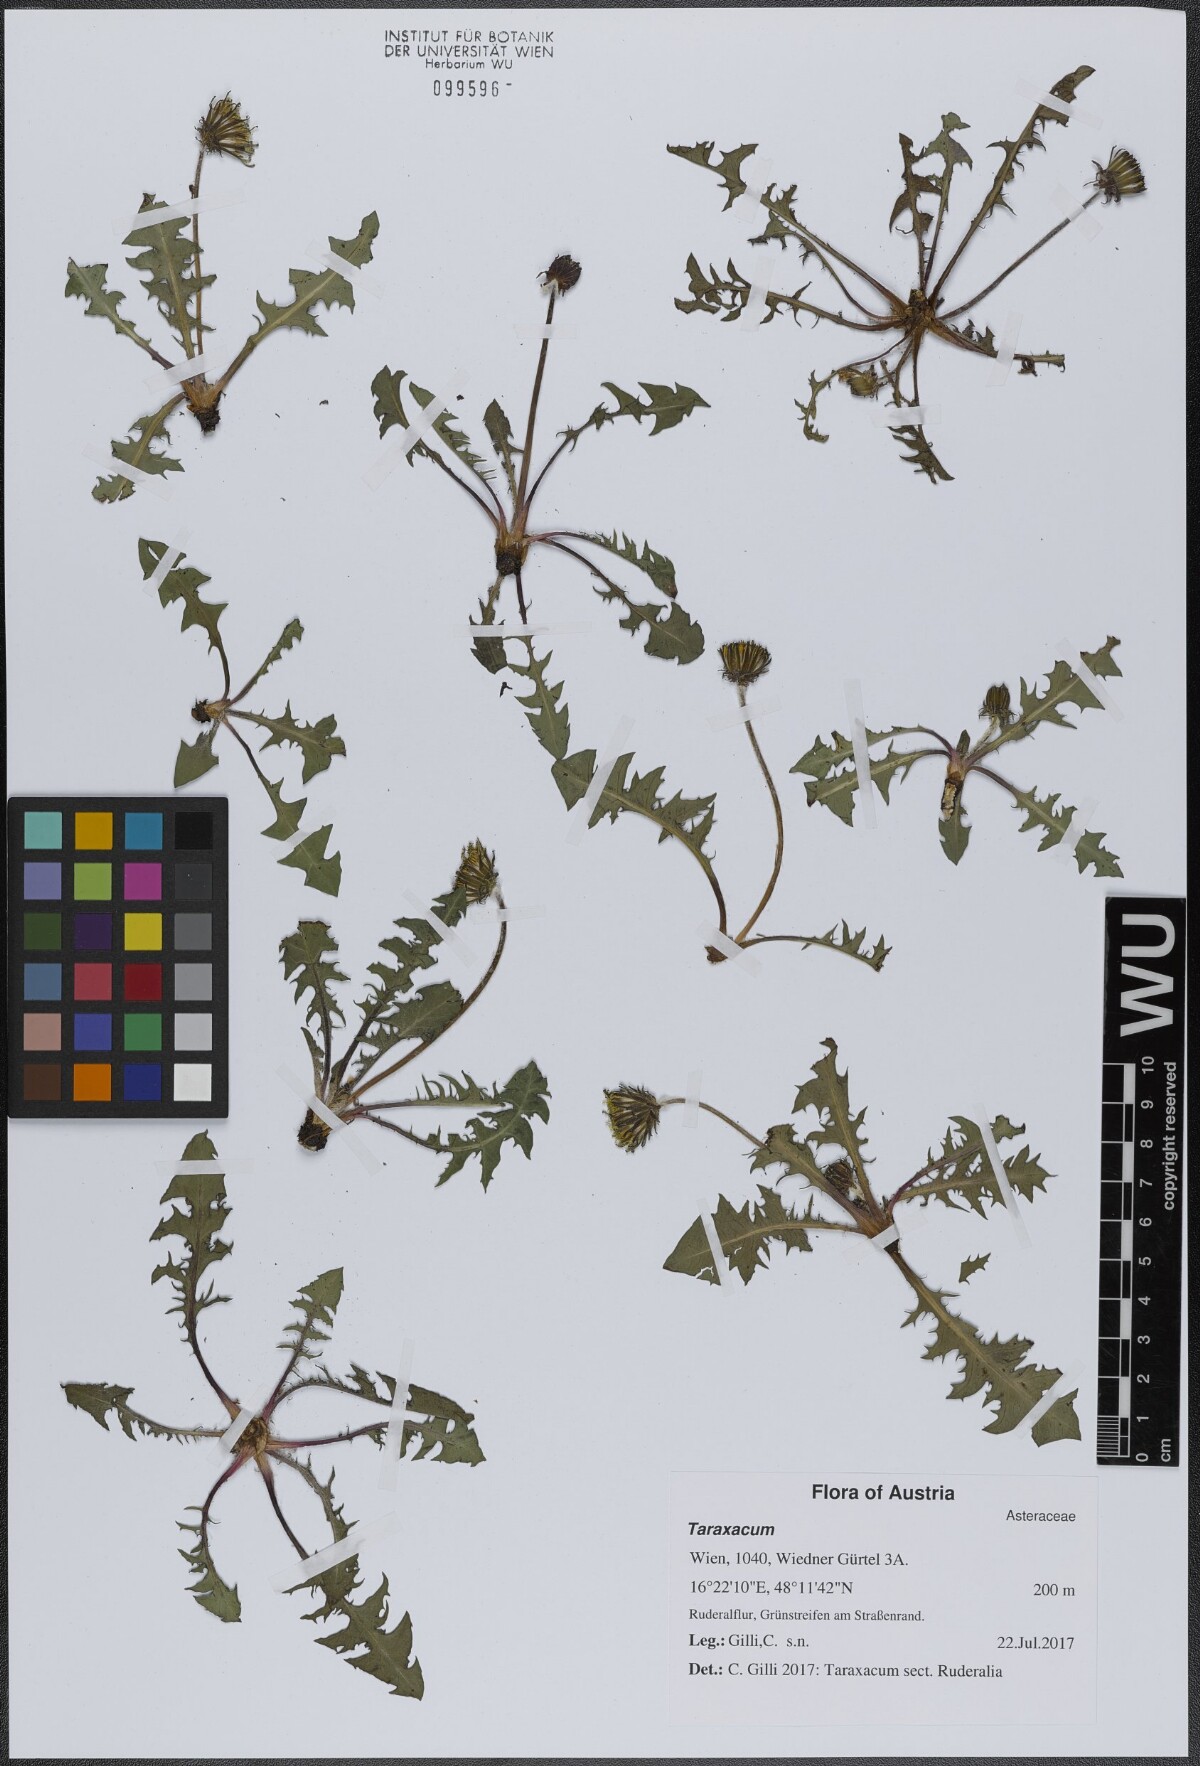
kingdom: Plantae
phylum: Tracheophyta
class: Magnoliopsida
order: Asterales
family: Asteraceae
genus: Taraxacum
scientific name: Taraxacum
